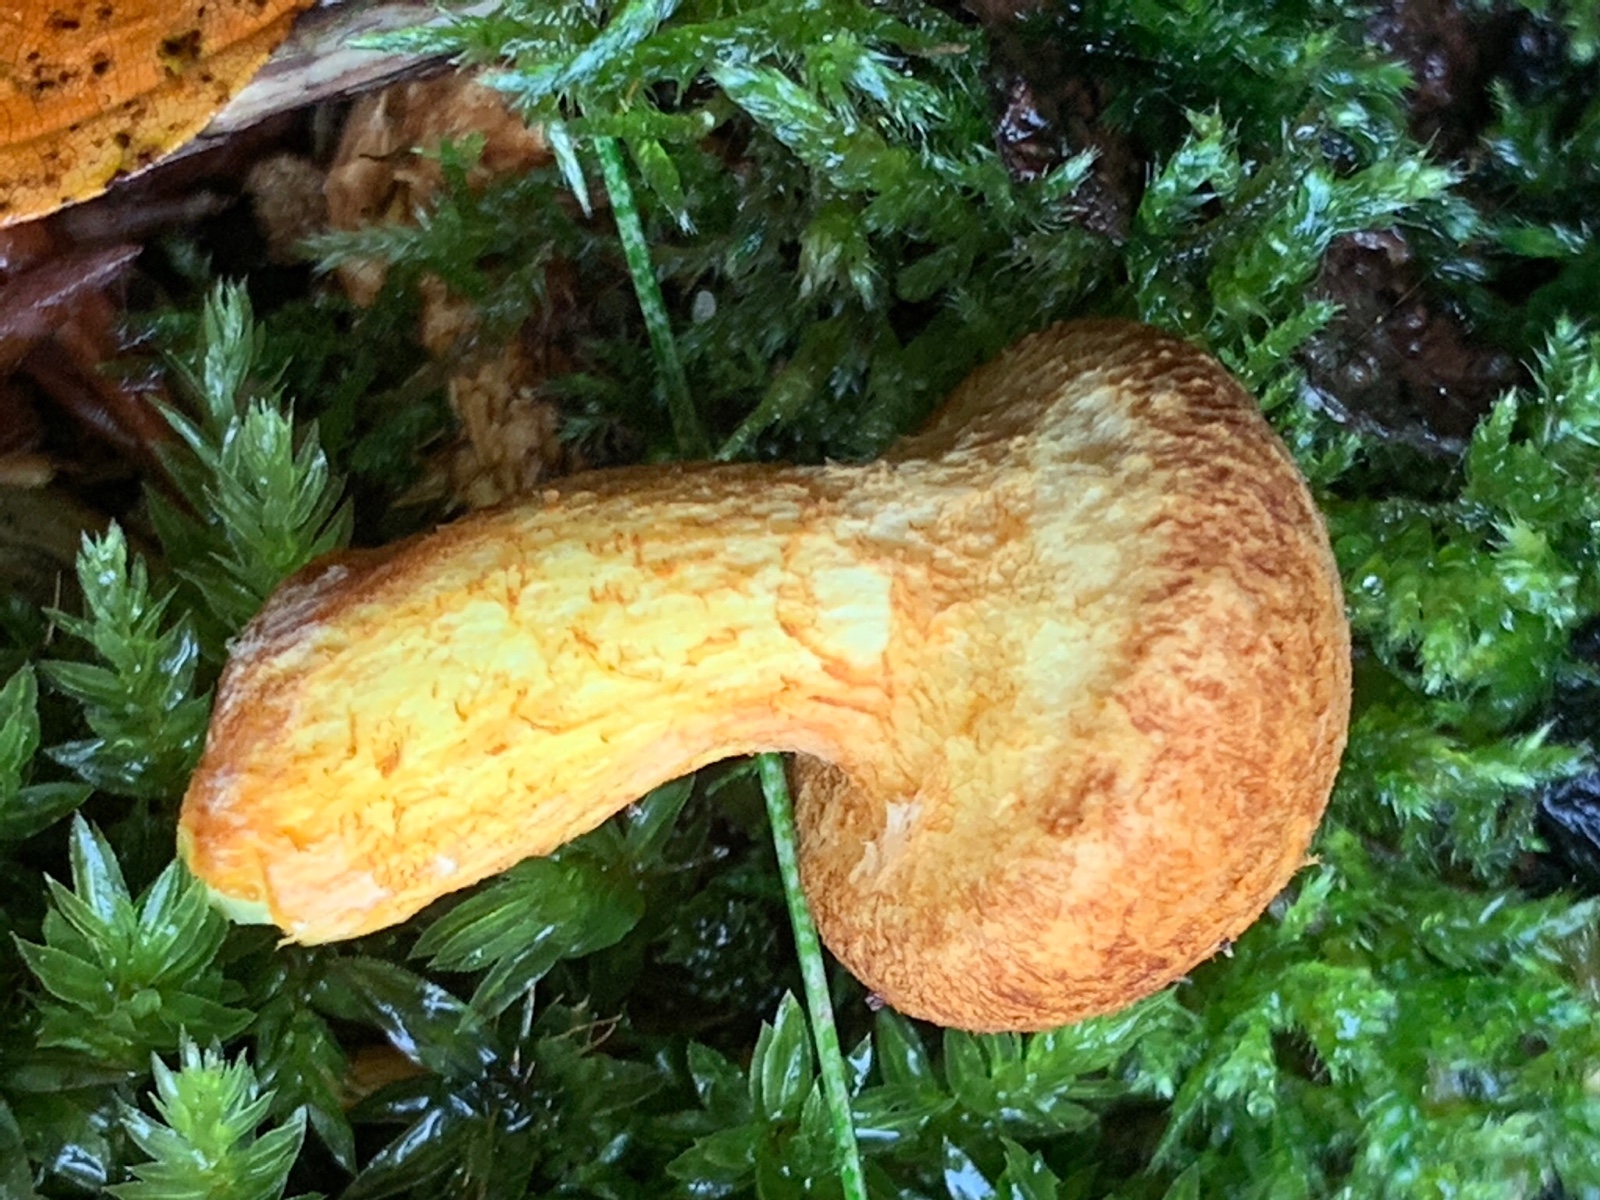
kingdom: Fungi
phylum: Basidiomycota
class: Agaricomycetes
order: Agaricales
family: Hymenogastraceae
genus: Gymnopilus
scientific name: Gymnopilus spectabilis
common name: fibret flammehat
